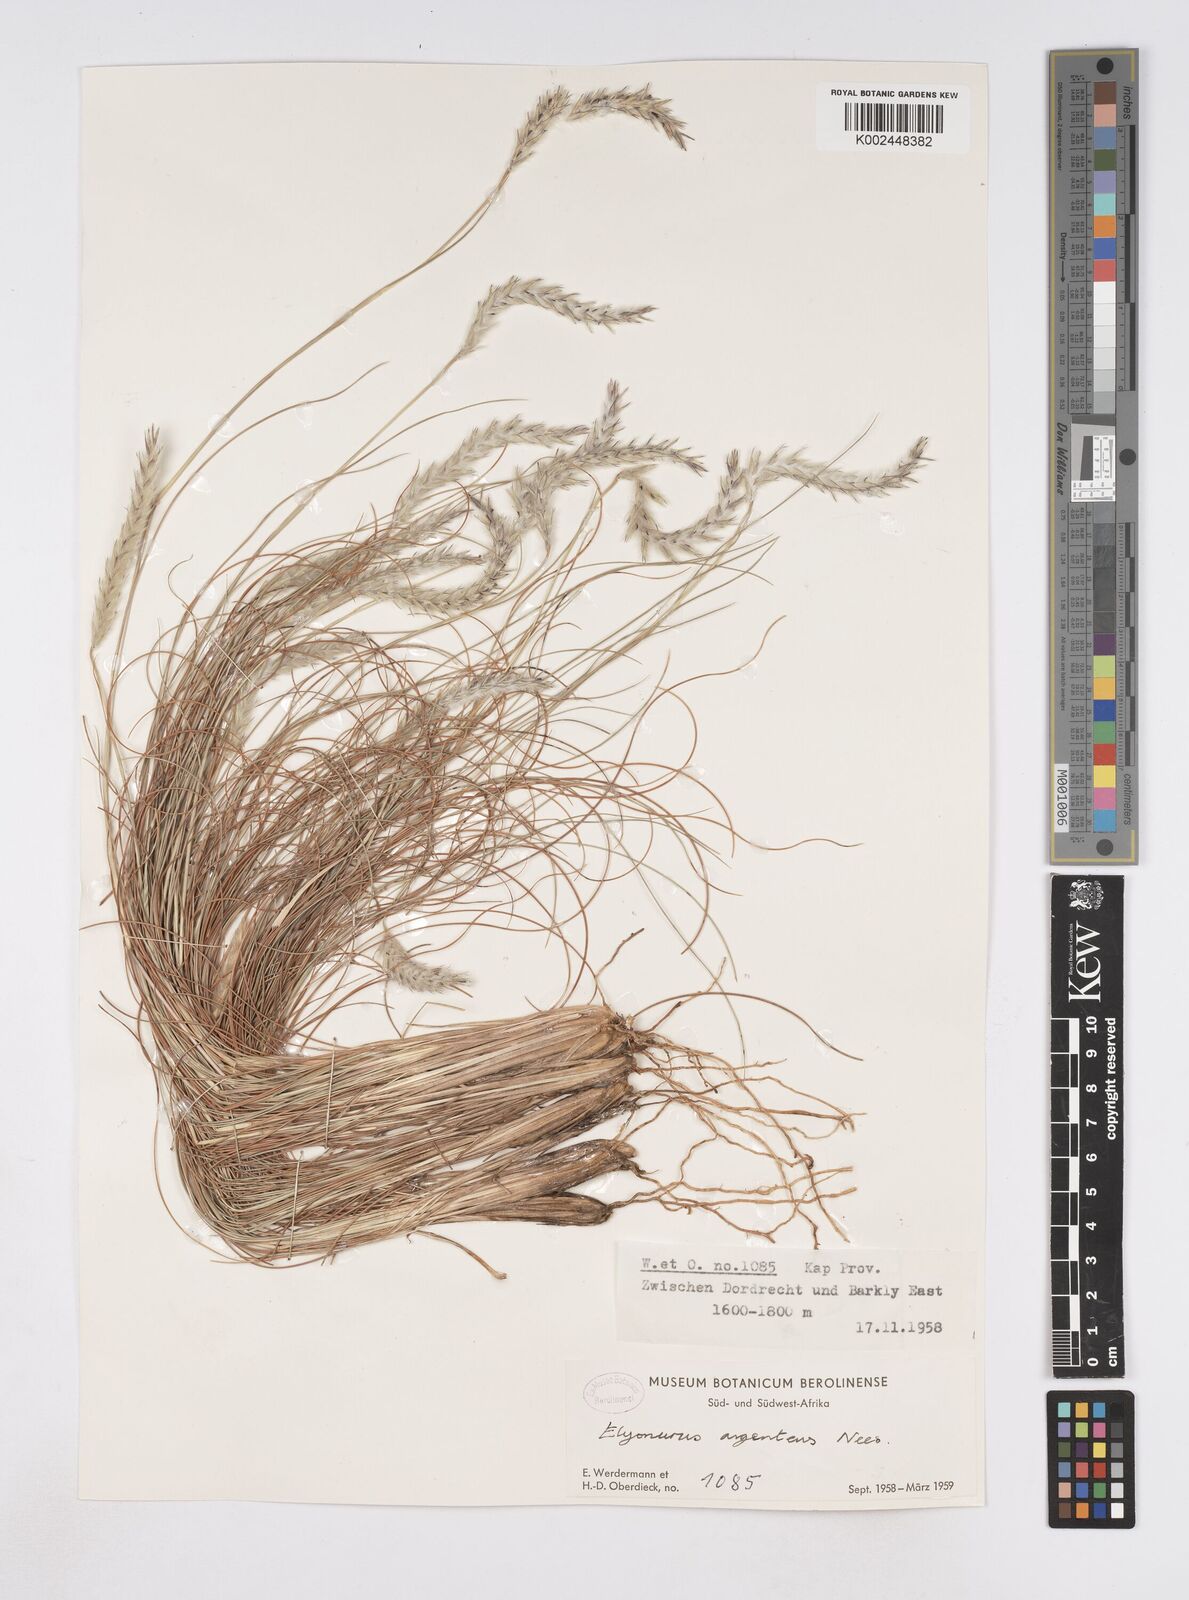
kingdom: Plantae
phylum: Tracheophyta
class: Liliopsida
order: Poales
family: Poaceae
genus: Elionurus
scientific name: Elionurus muticus
